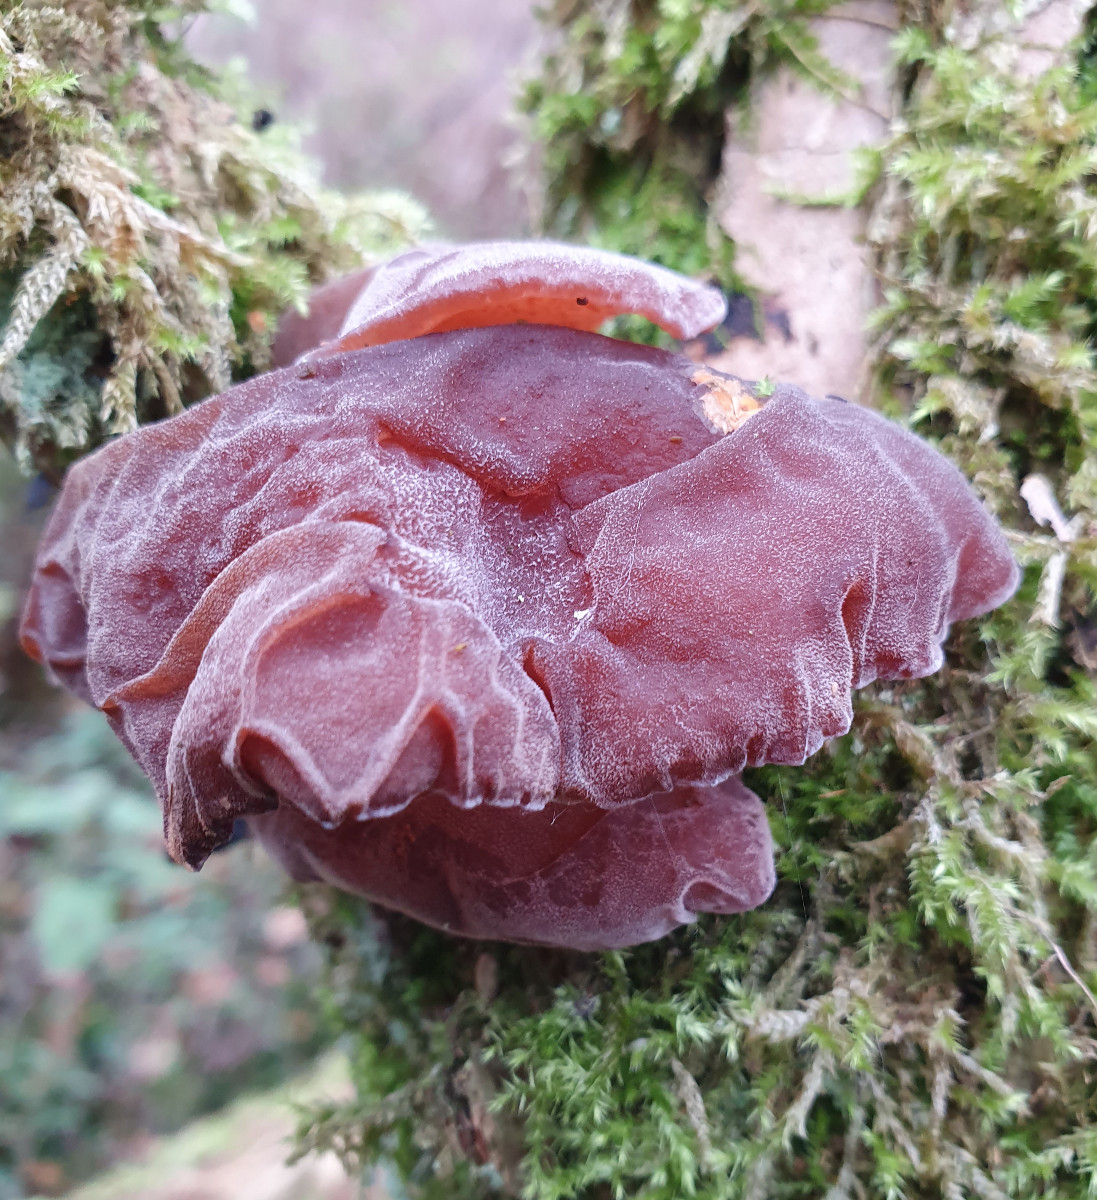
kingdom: Fungi
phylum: Basidiomycota
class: Agaricomycetes
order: Auriculariales
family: Auriculariaceae
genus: Auricularia
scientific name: Auricularia auricula-judae
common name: almindelig judasøre
